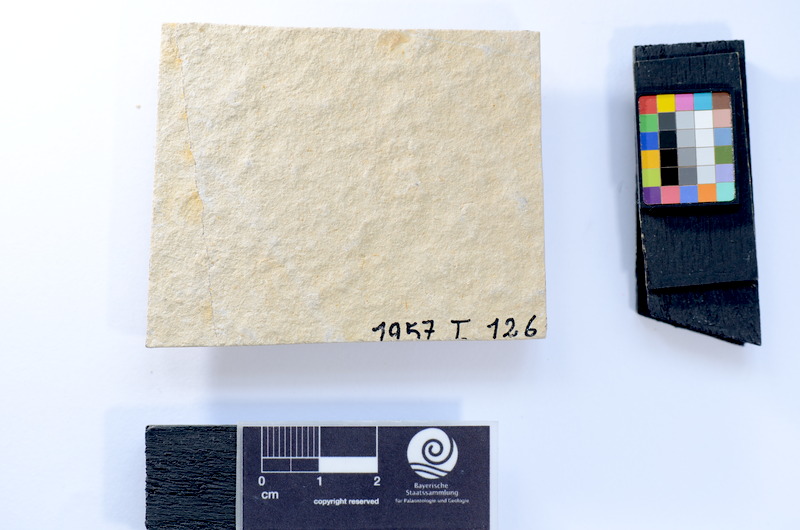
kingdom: Animalia
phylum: Chordata
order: Salmoniformes
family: Orthogonikleithridae
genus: Leptolepides
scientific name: Leptolepides sprattiformis
